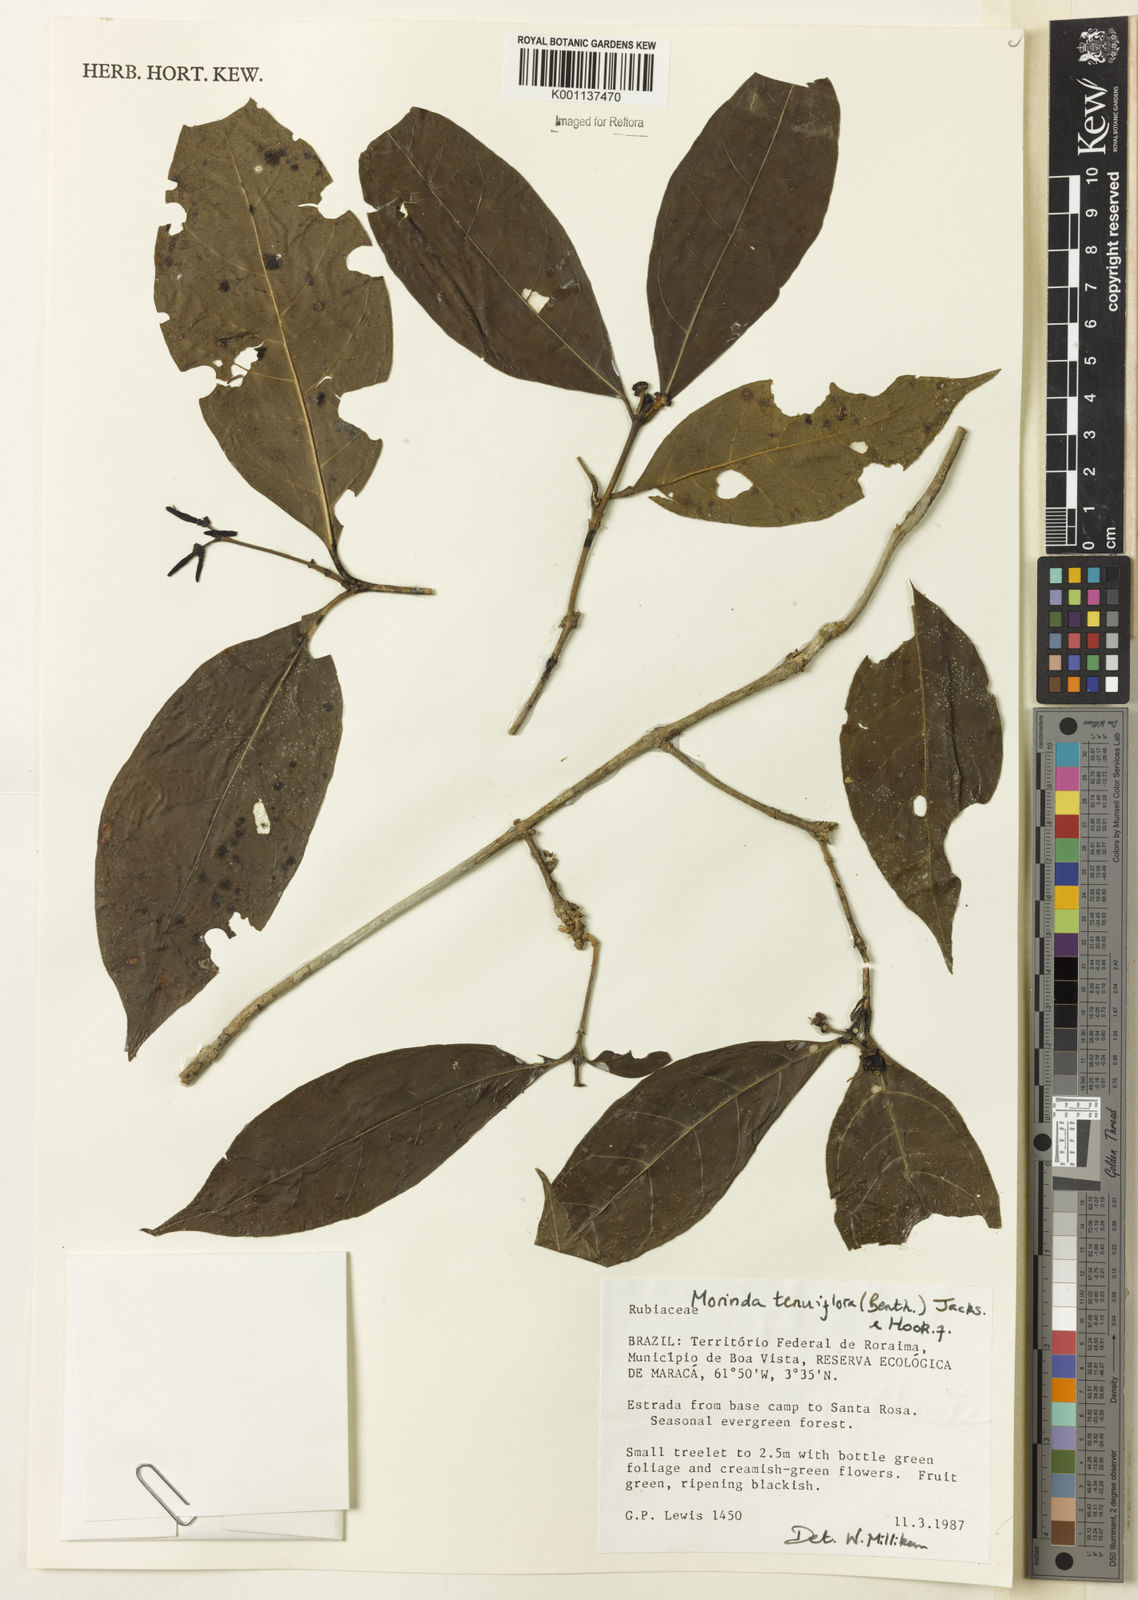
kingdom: Plantae
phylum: Tracheophyta
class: Magnoliopsida
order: Gentianales
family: Rubiaceae
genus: Appunia
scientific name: Appunia tenuiflora
